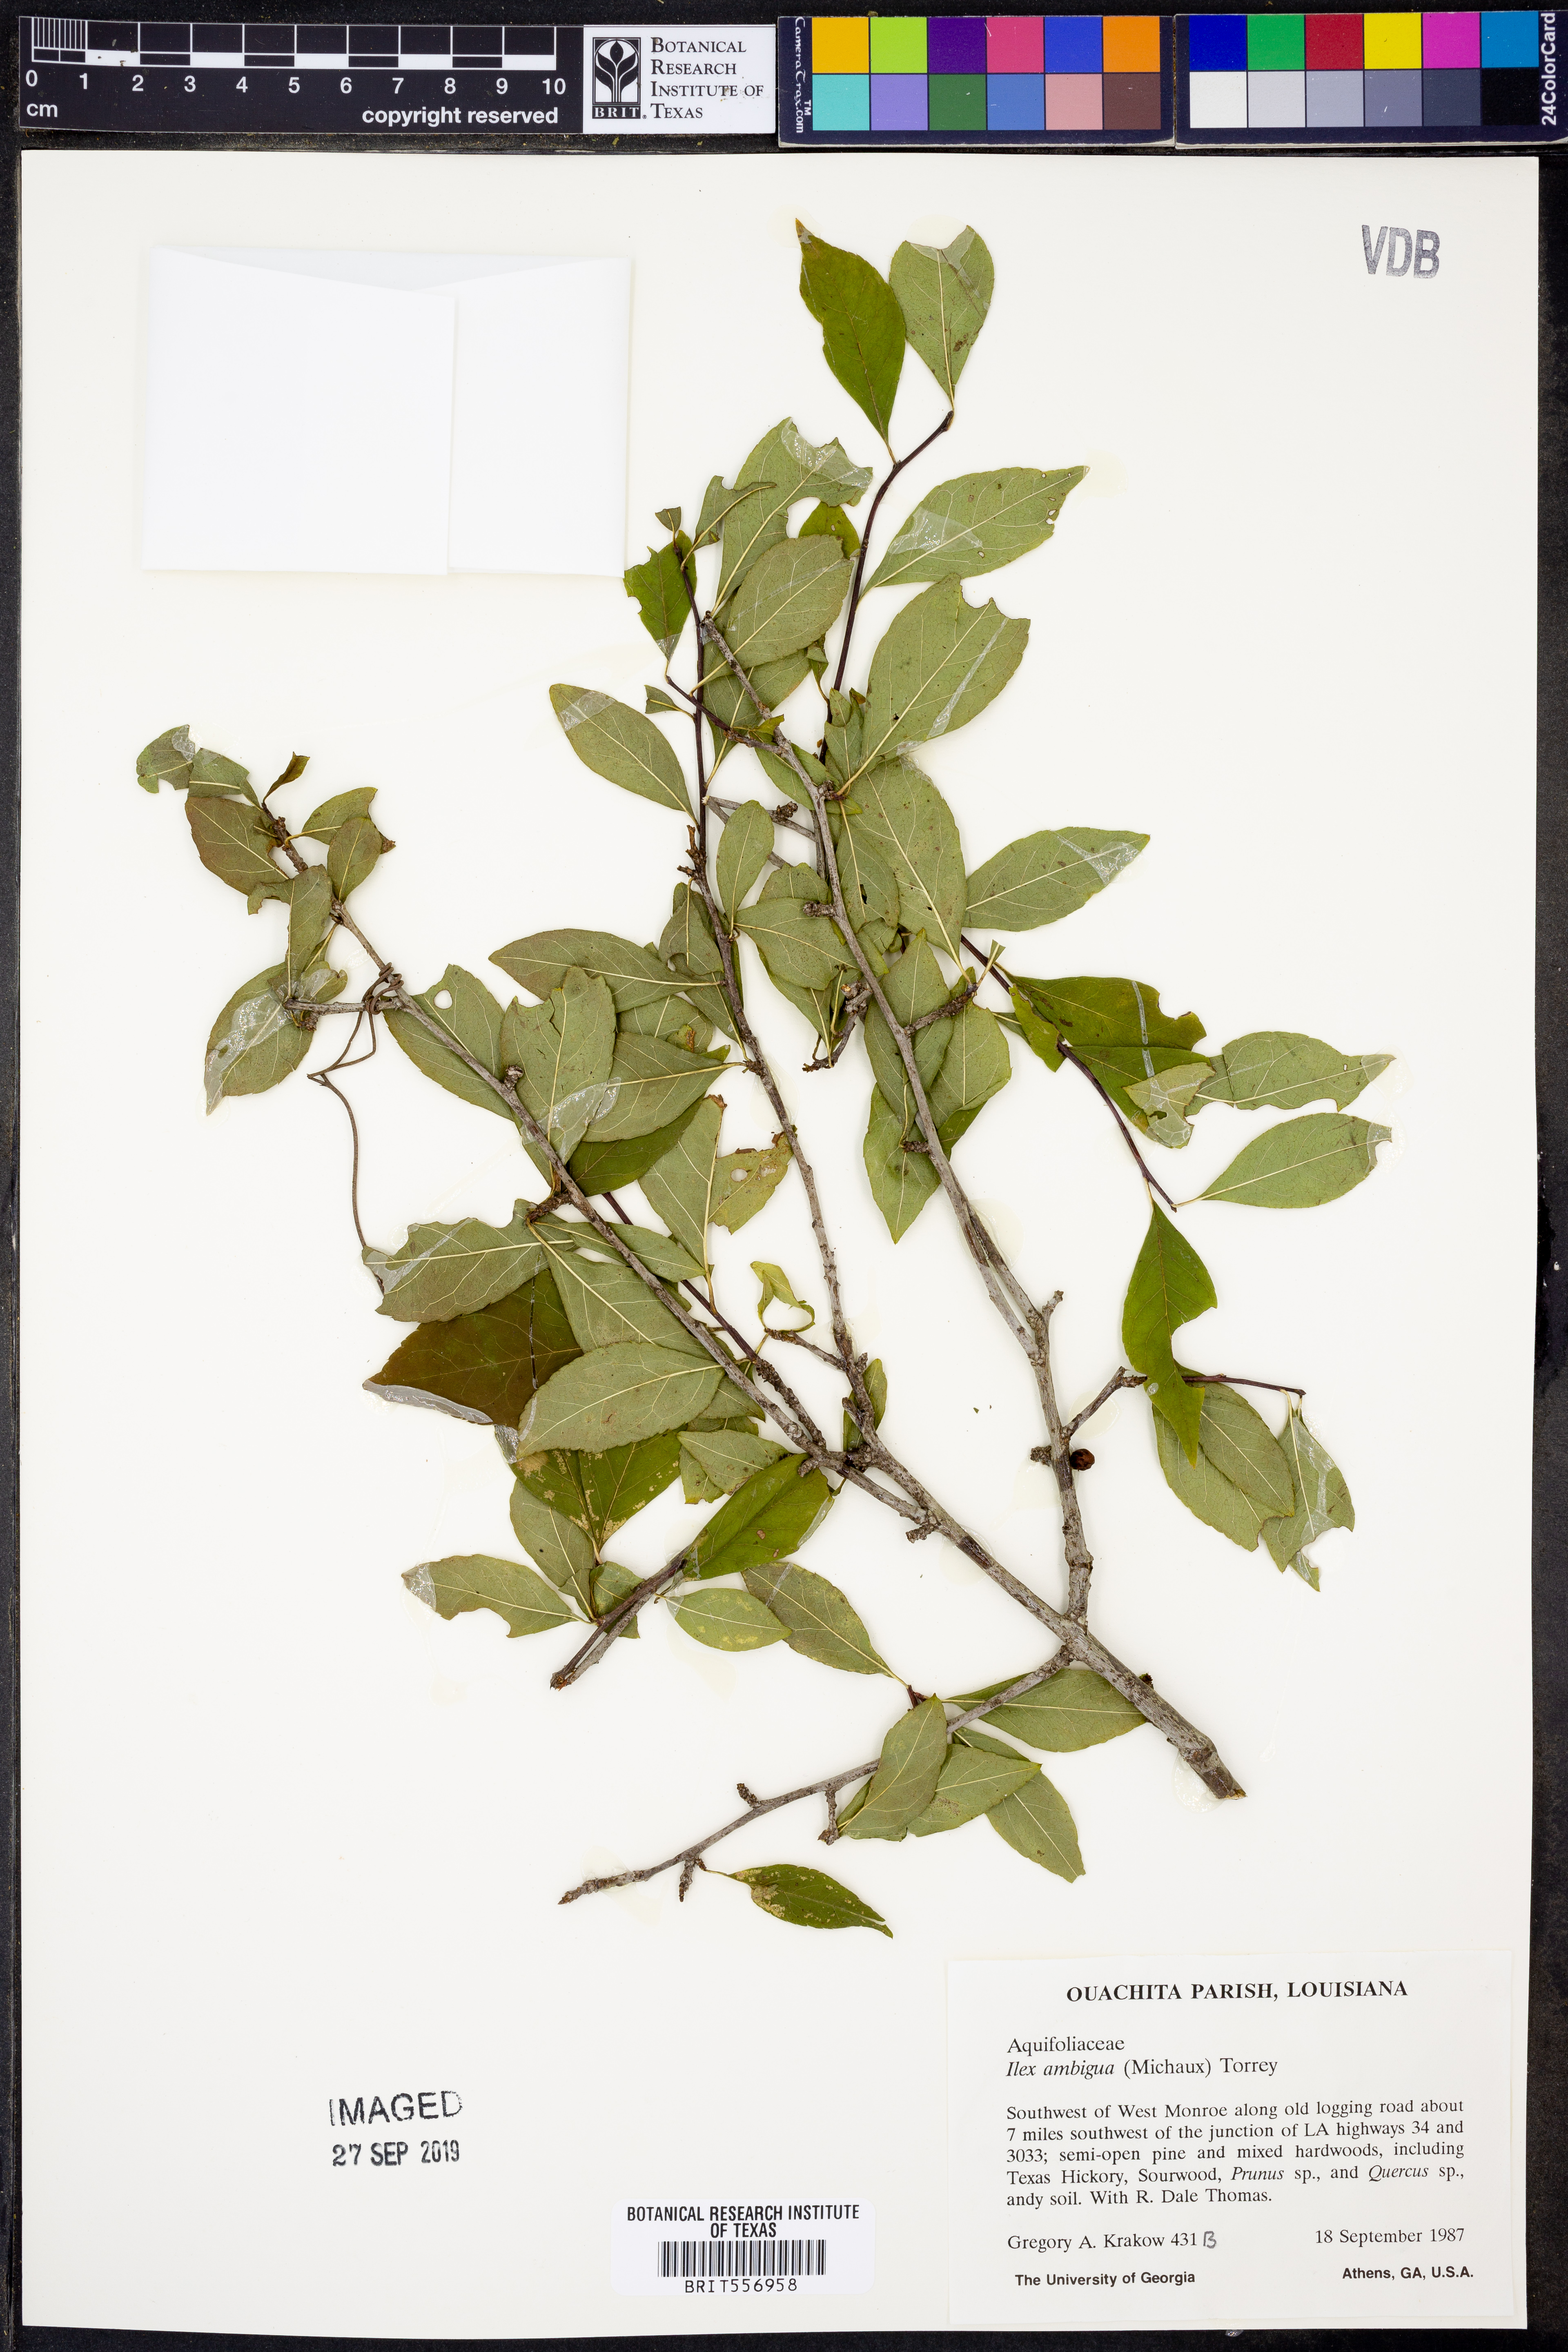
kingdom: Plantae
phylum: Tracheophyta
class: Magnoliopsida
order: Aquifoliales
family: Aquifoliaceae
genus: Ilex
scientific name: Ilex ambigua
